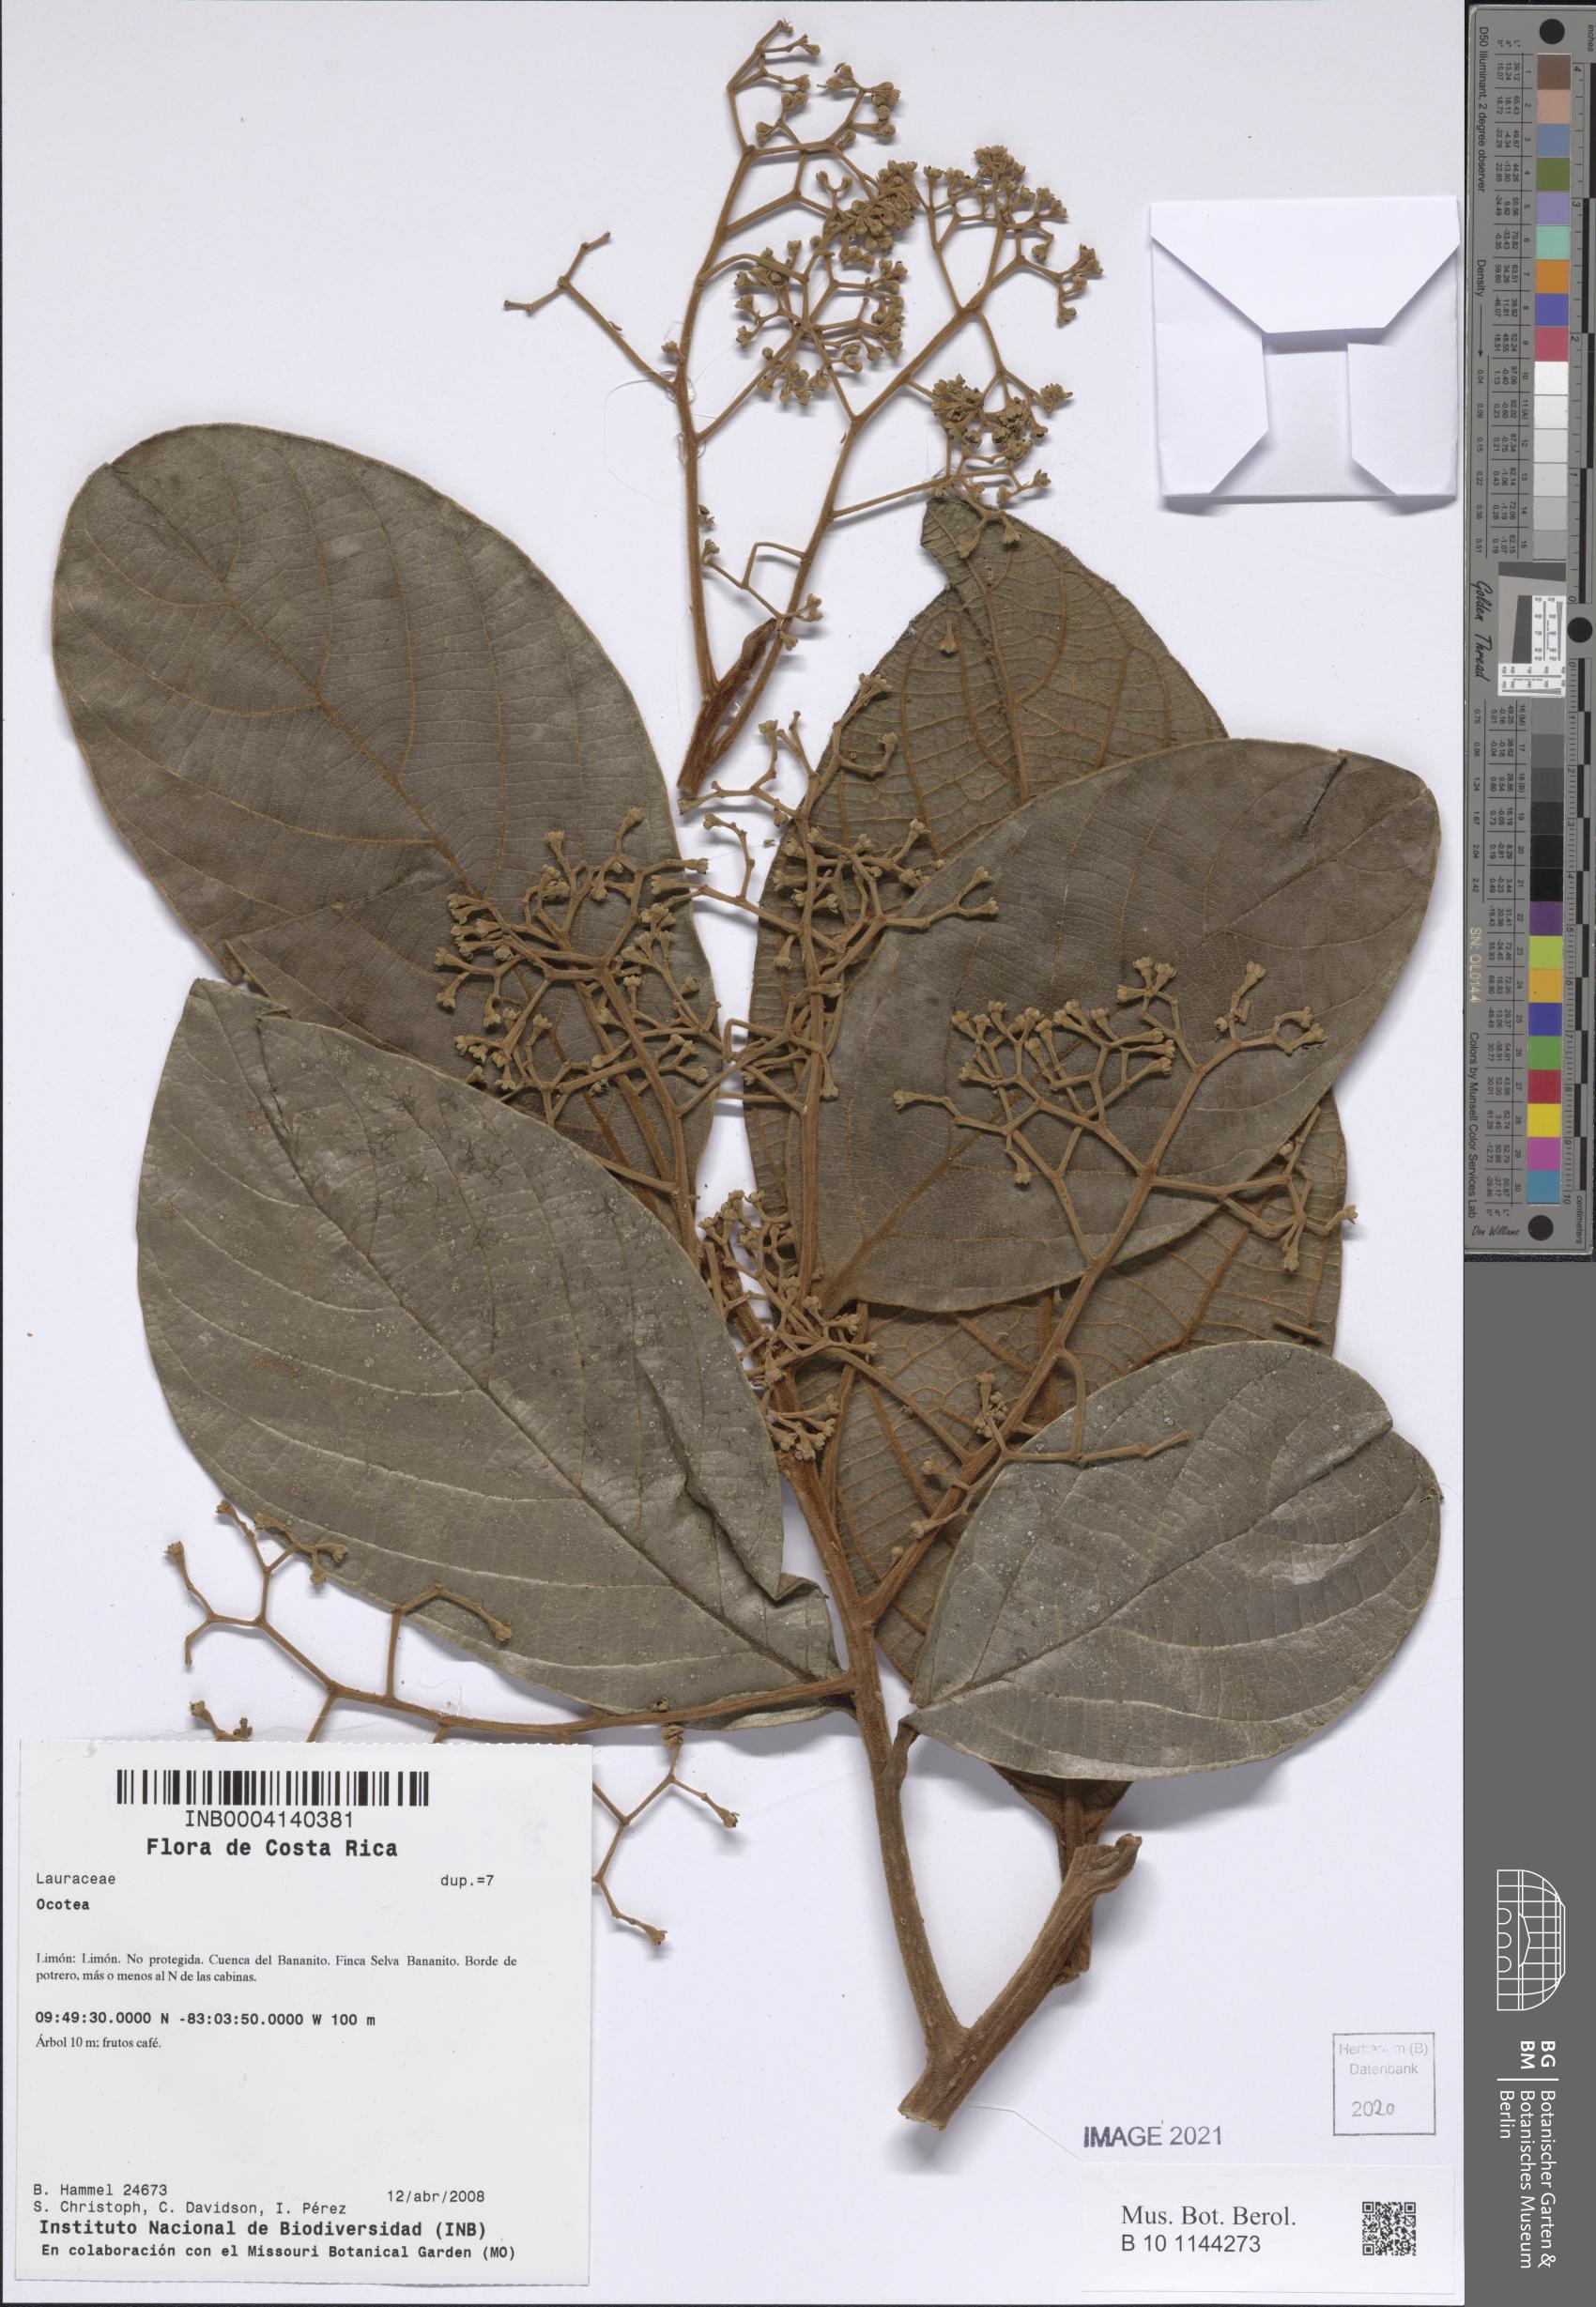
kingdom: Plantae
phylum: Tracheophyta
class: Magnoliopsida
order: Laurales
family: Lauraceae
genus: Ocotea
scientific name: Ocotea
